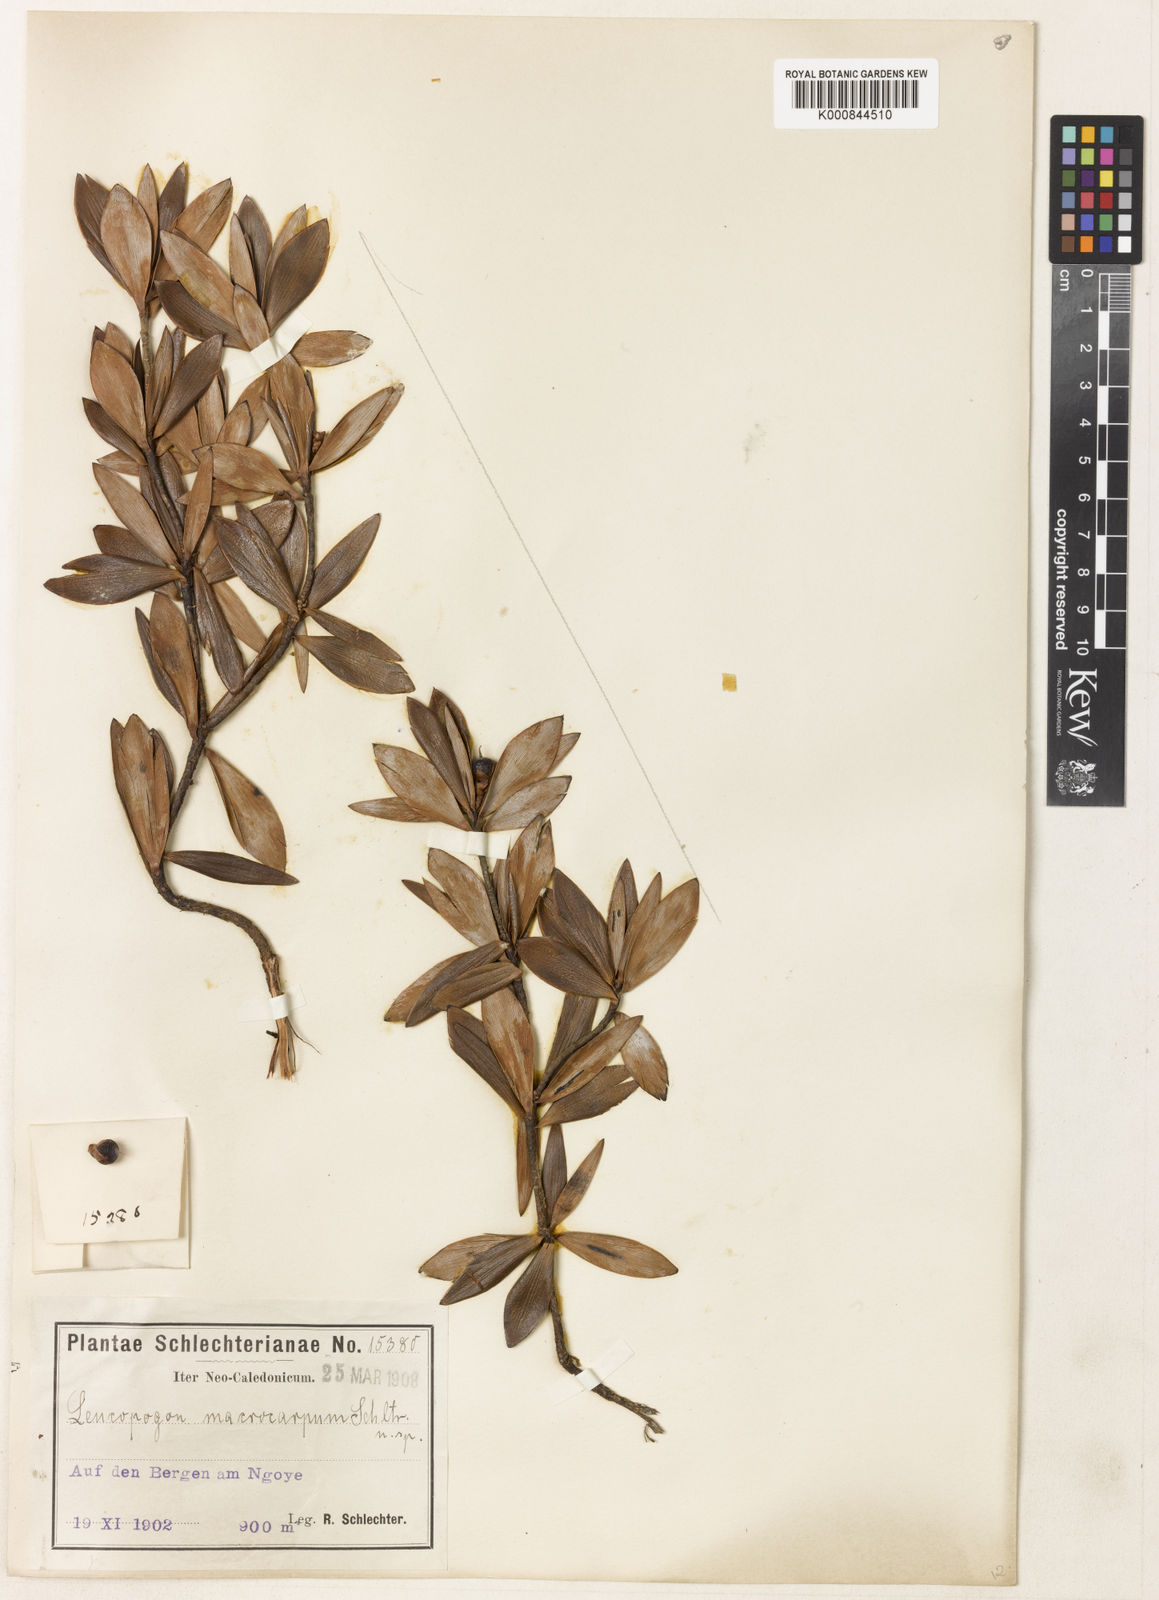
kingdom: Plantae
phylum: Tracheophyta
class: Magnoliopsida
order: Ericales
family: Ericaceae
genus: Styphelia
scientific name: Styphelia macrocarpa
